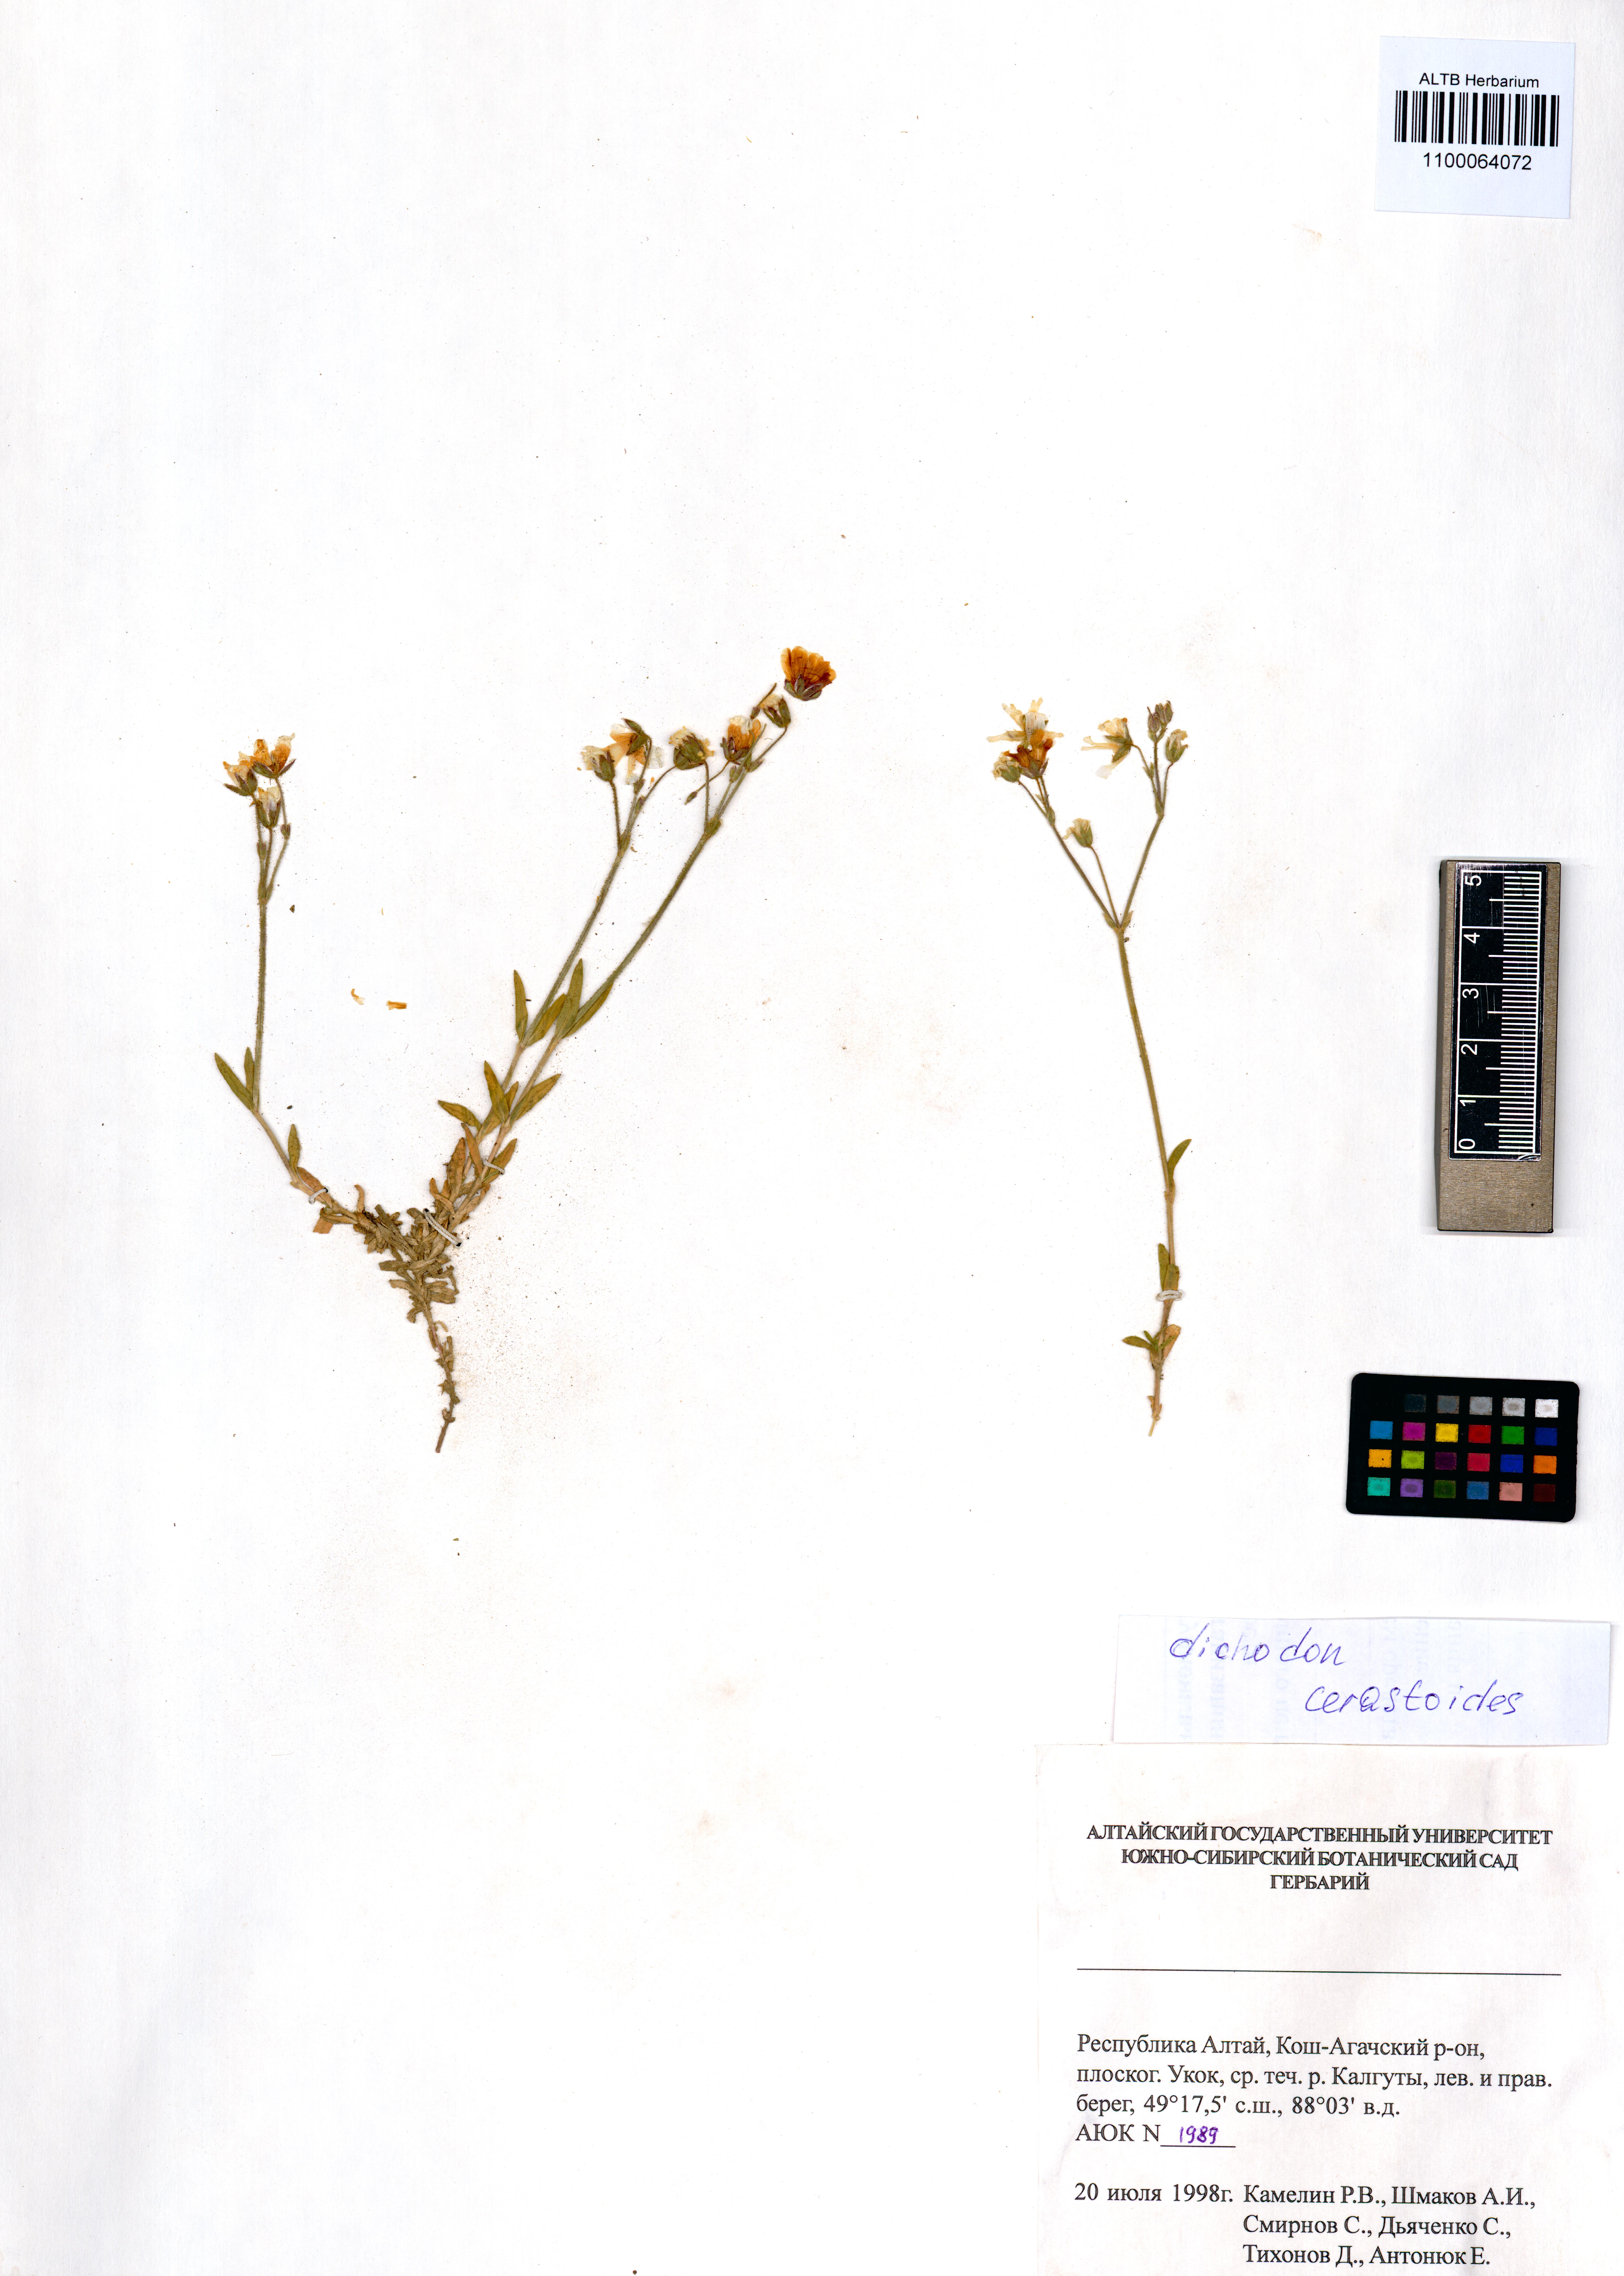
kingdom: Plantae
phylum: Tracheophyta
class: Magnoliopsida
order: Caryophyllales
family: Caryophyllaceae
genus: Dichodon
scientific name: Dichodon cerastoides
